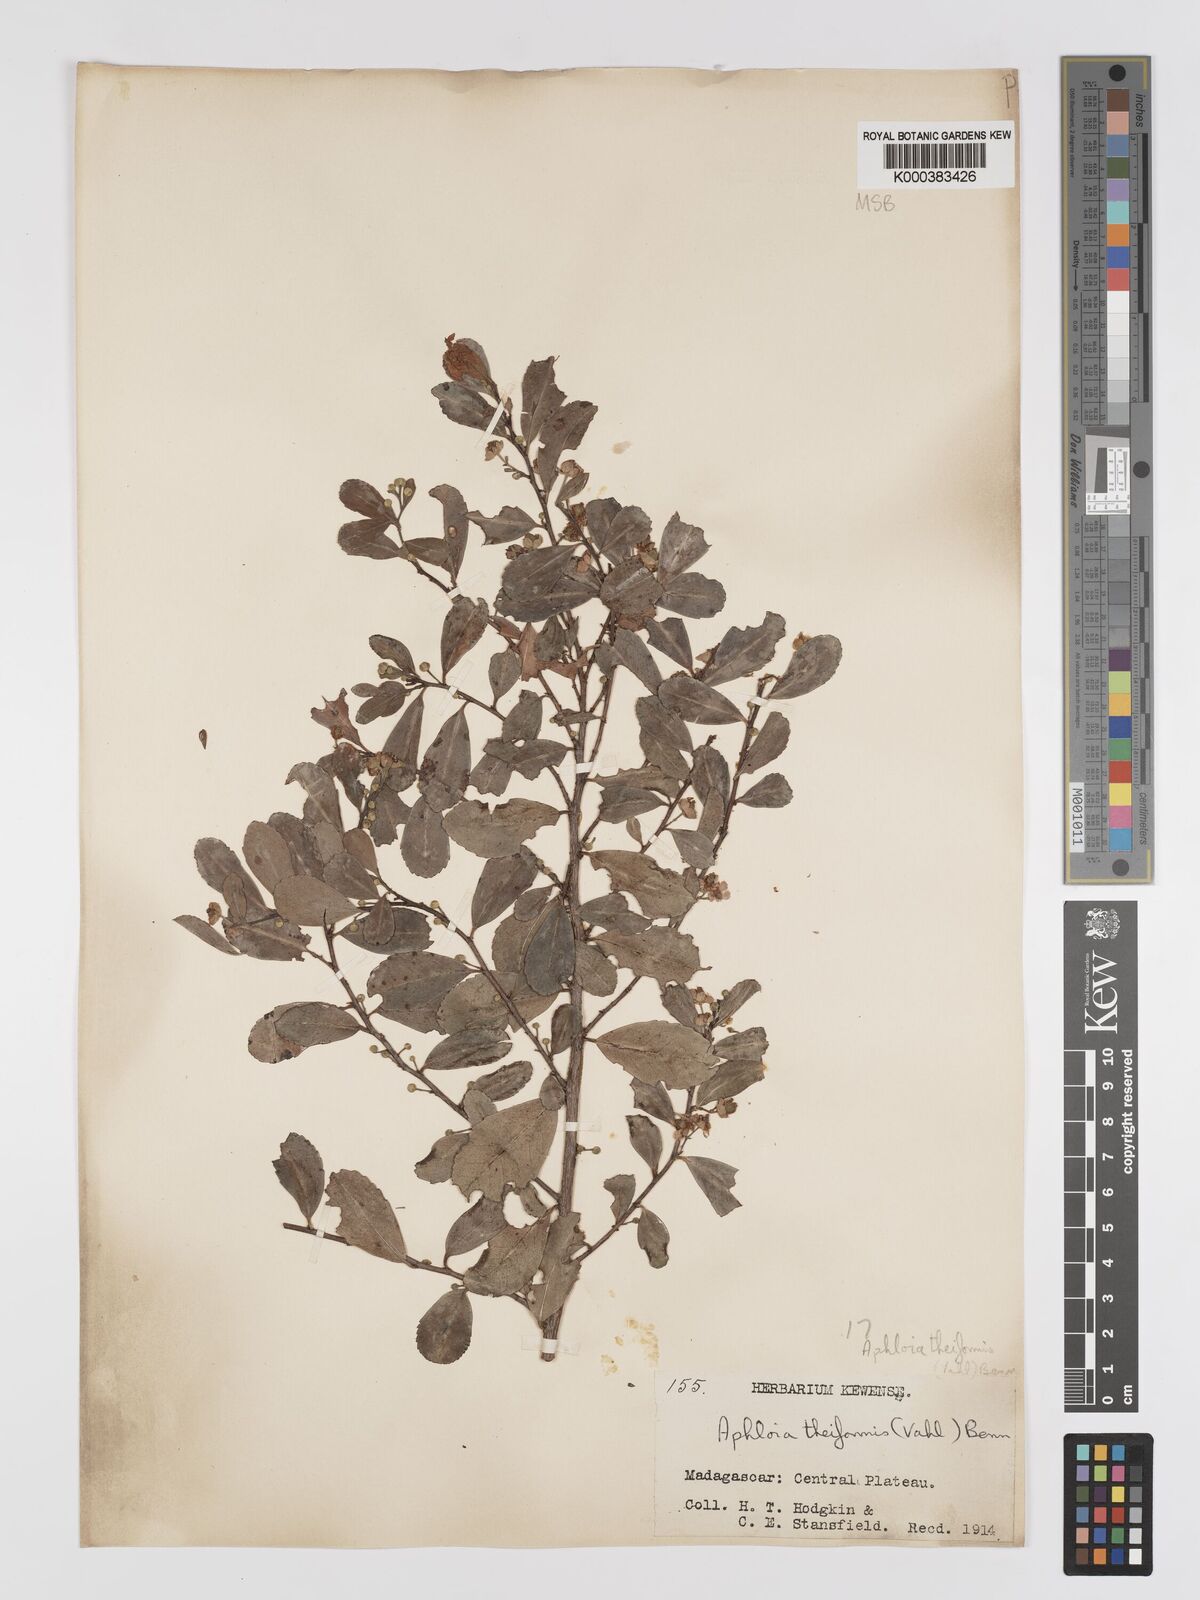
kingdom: Plantae
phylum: Tracheophyta
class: Magnoliopsida
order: Crossosomatales
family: Aphloiaceae
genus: Aphloia
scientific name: Aphloia theiformis
